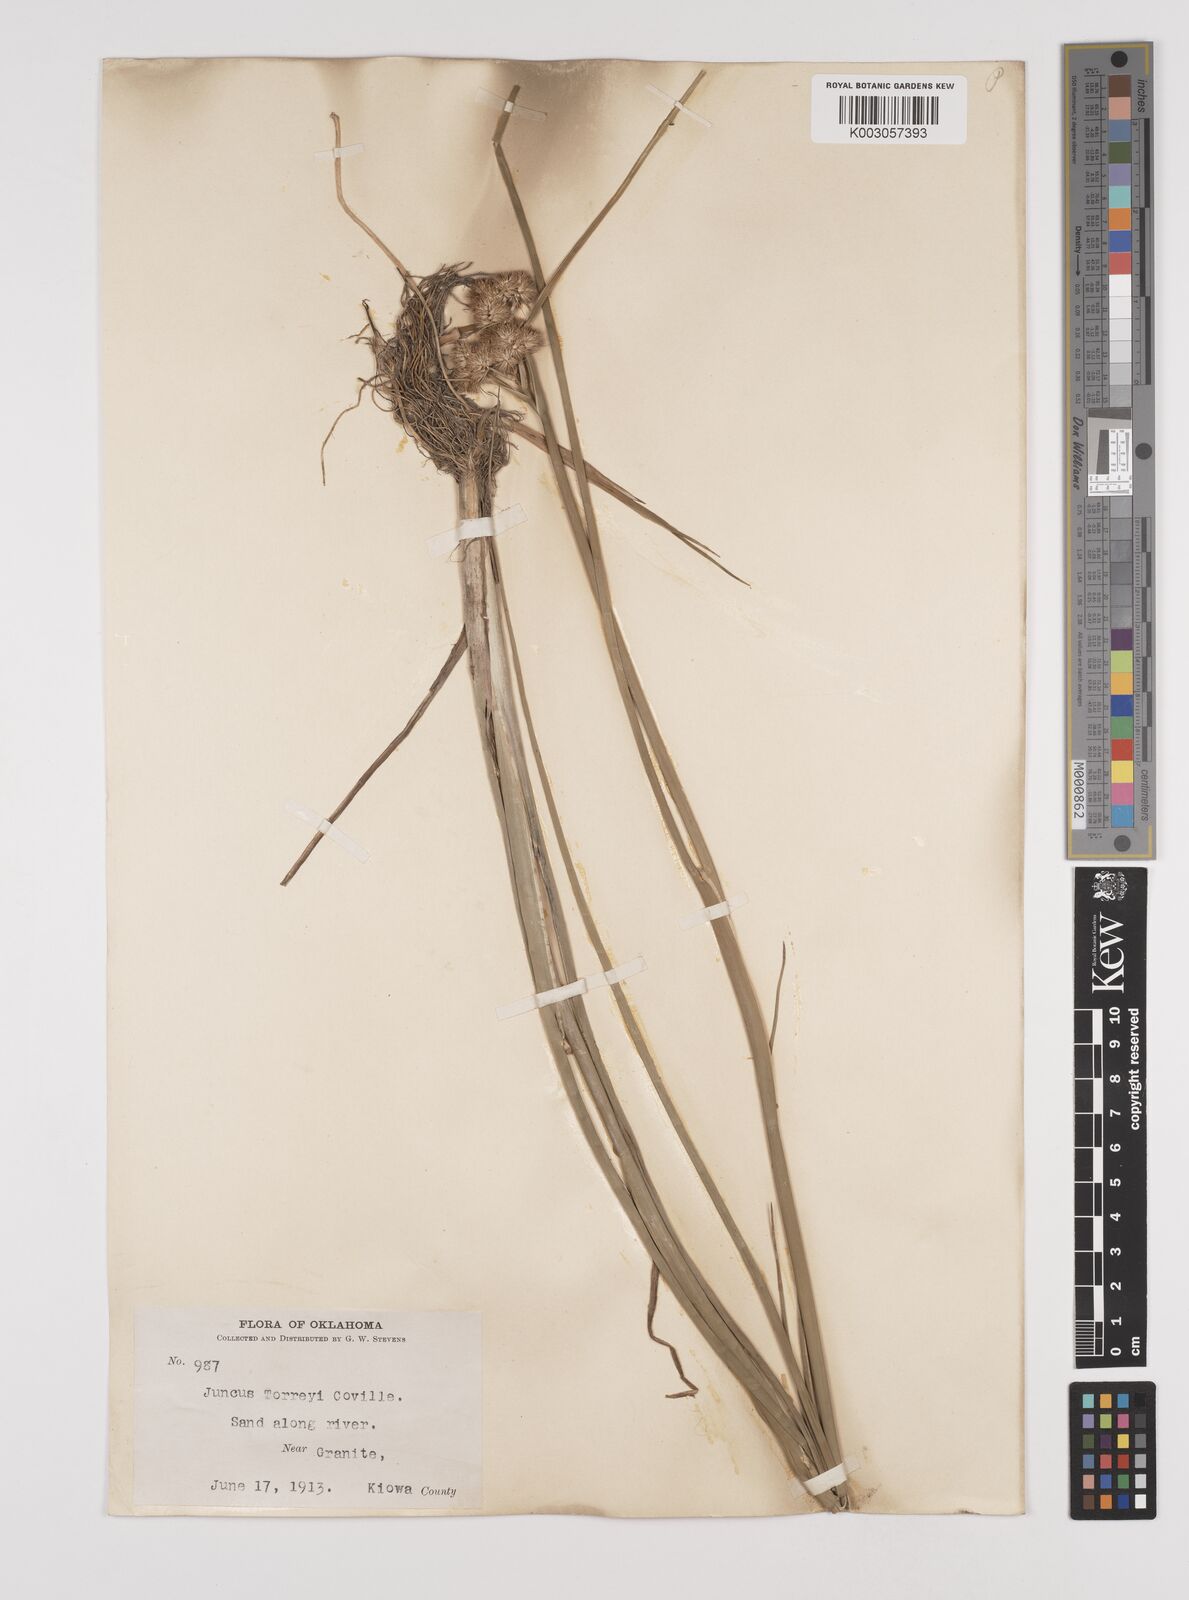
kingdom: Plantae
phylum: Tracheophyta
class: Liliopsida
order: Poales
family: Juncaceae
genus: Juncus
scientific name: Juncus torreyi
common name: Torrey's rush
